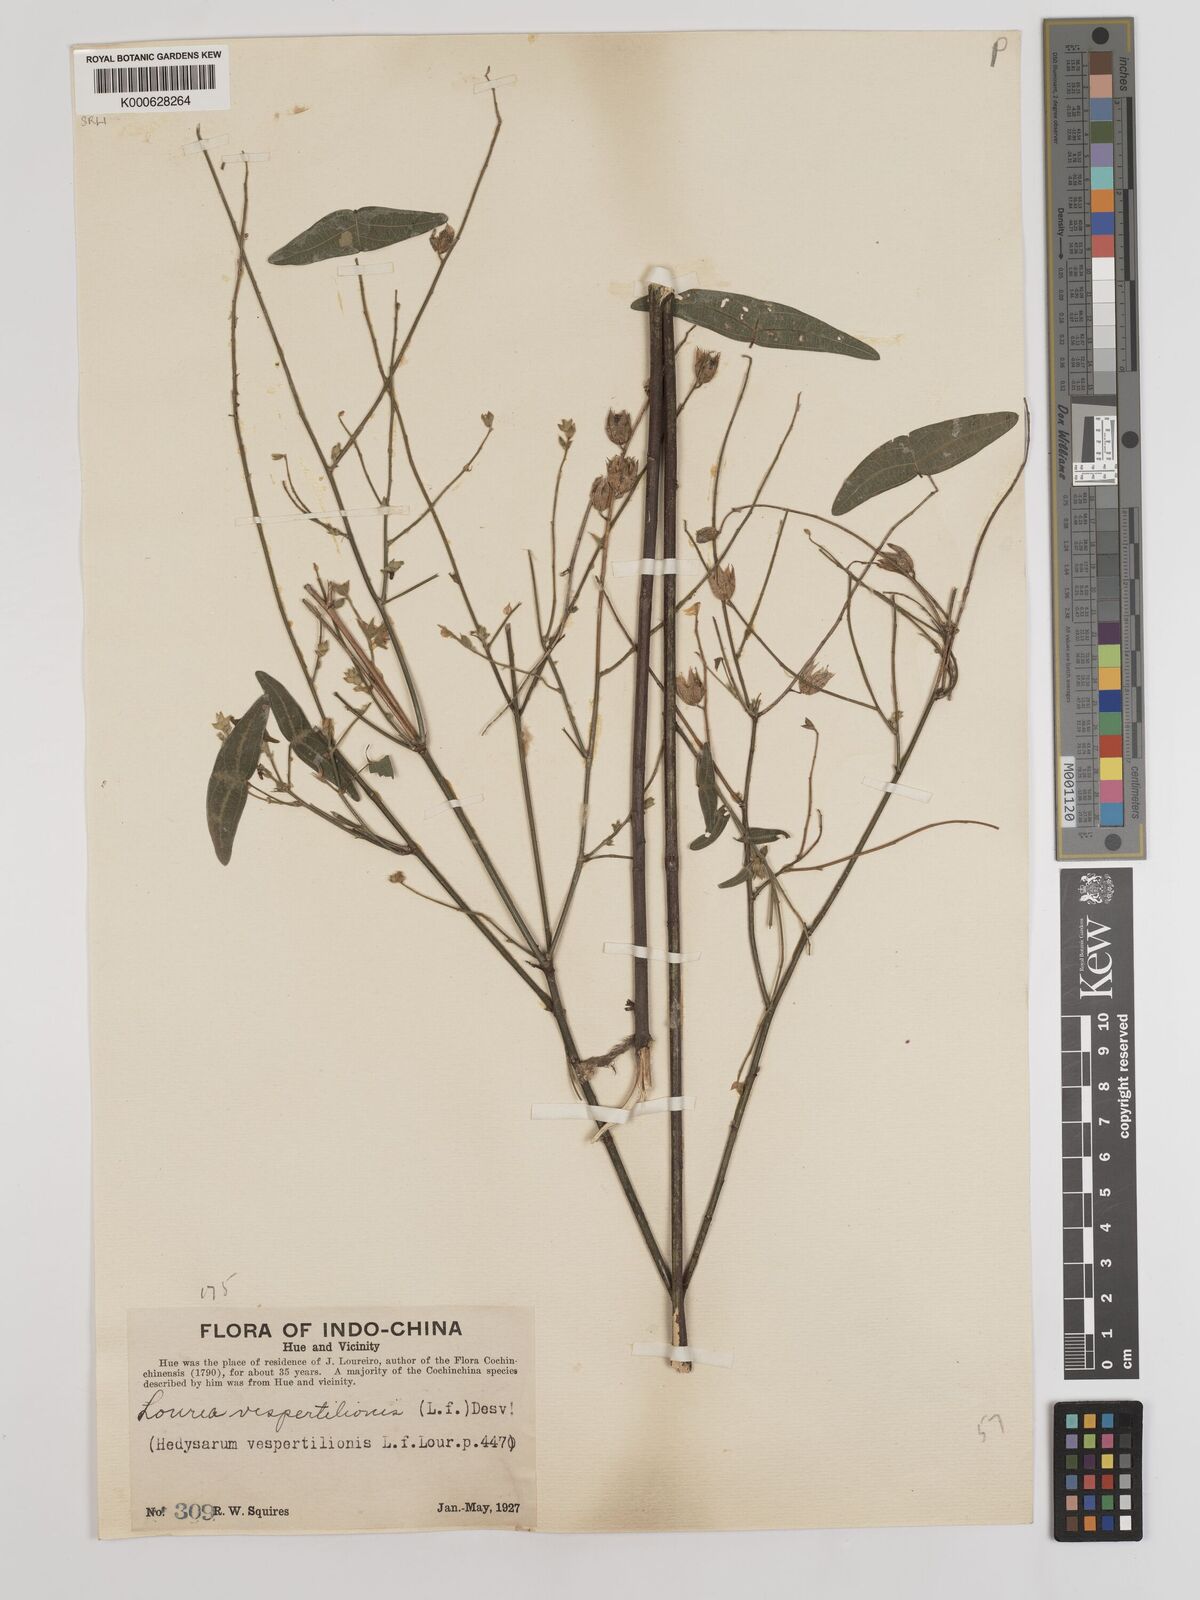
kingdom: Plantae
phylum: Tracheophyta
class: Magnoliopsida
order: Fabales
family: Fabaceae
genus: Christia
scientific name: Christia vespertilionis
